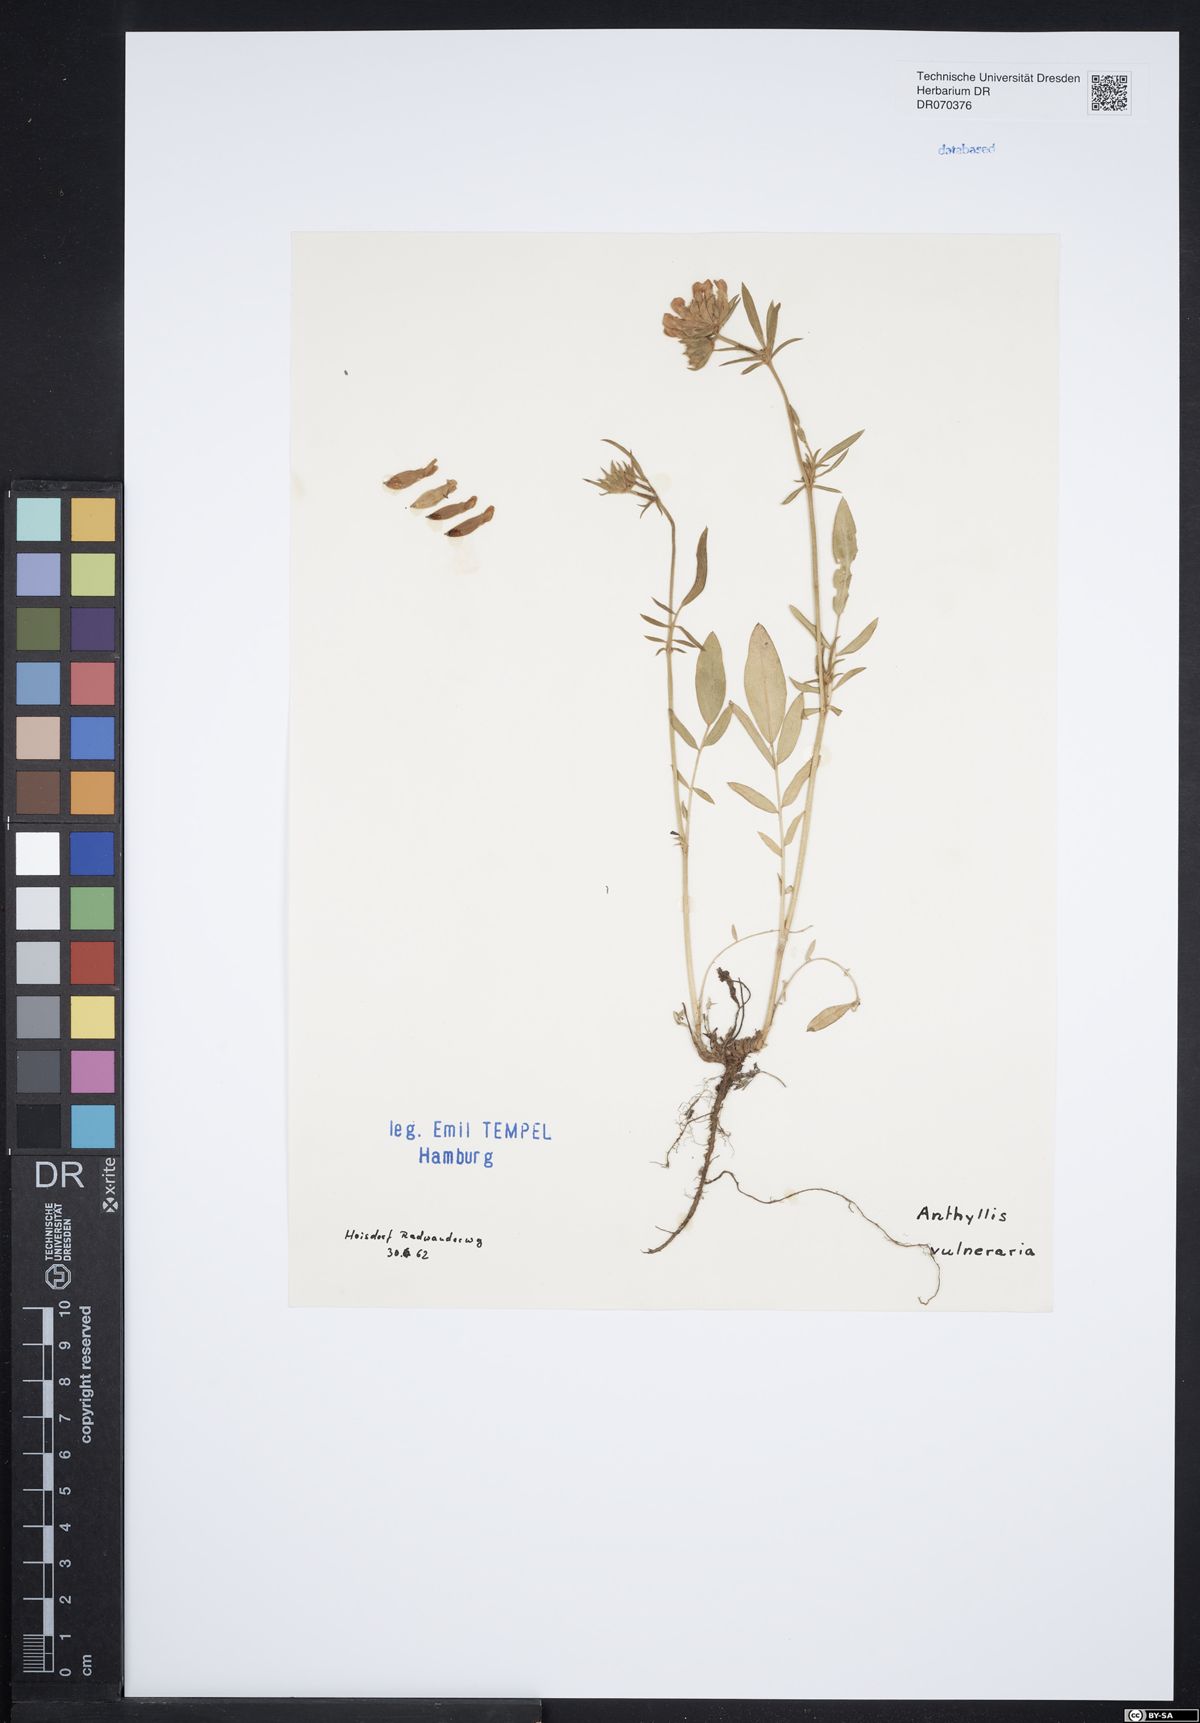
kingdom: Plantae
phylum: Tracheophyta
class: Magnoliopsida
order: Fabales
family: Fabaceae
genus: Anthyllis
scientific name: Anthyllis vulneraria
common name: Kidney vetch
